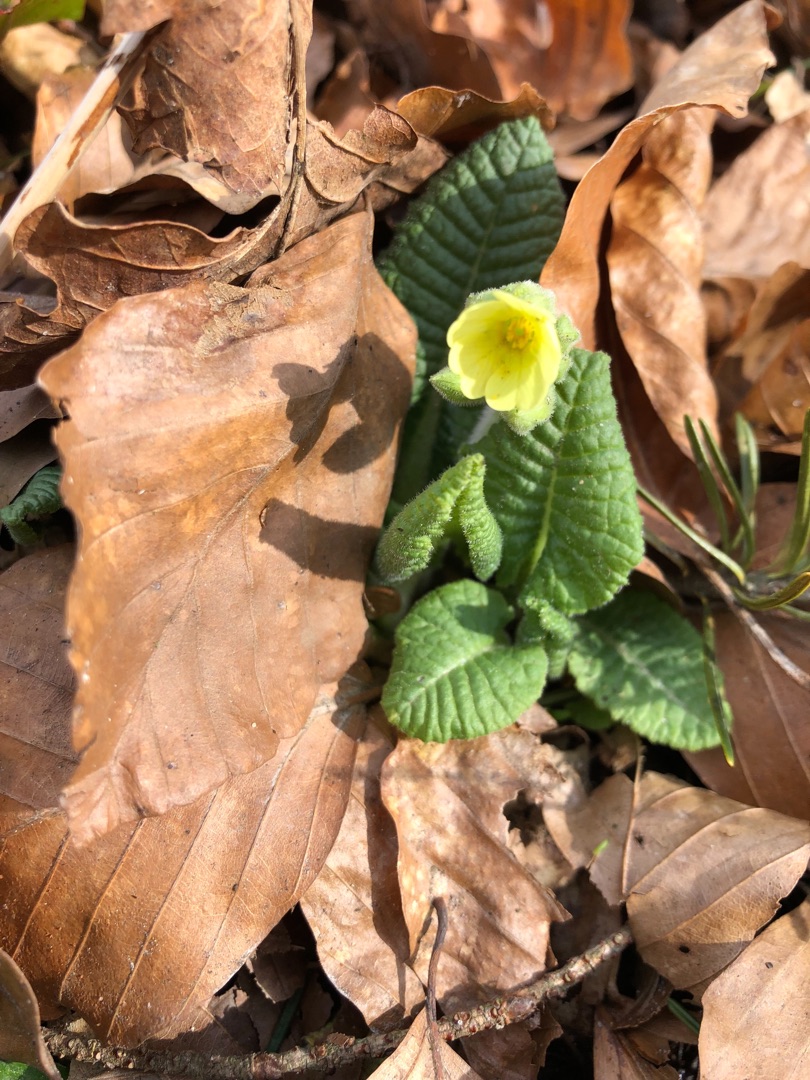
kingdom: Plantae
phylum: Tracheophyta
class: Magnoliopsida
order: Ericales
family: Primulaceae
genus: Primula
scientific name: Primula elatior
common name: Fladkravet kodriver
